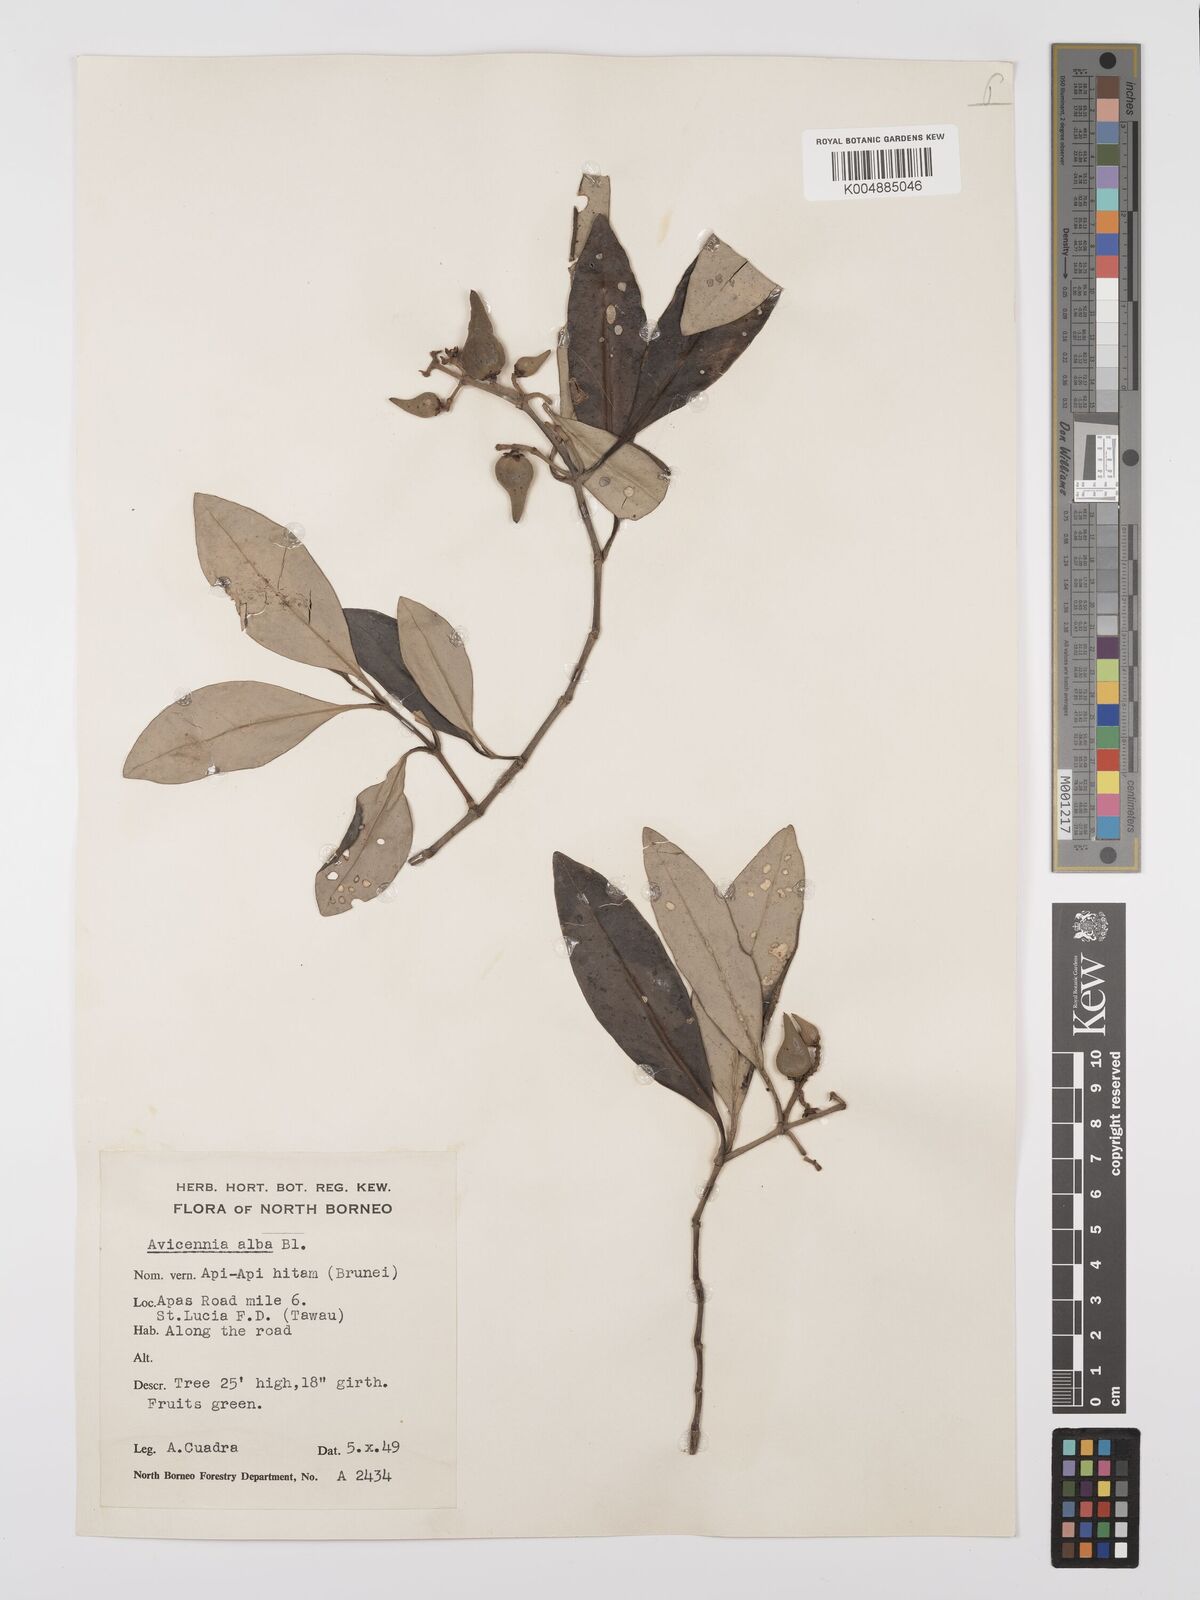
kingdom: Plantae
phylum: Tracheophyta
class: Magnoliopsida
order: Lamiales
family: Acanthaceae
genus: Avicennia
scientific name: Avicennia alba
